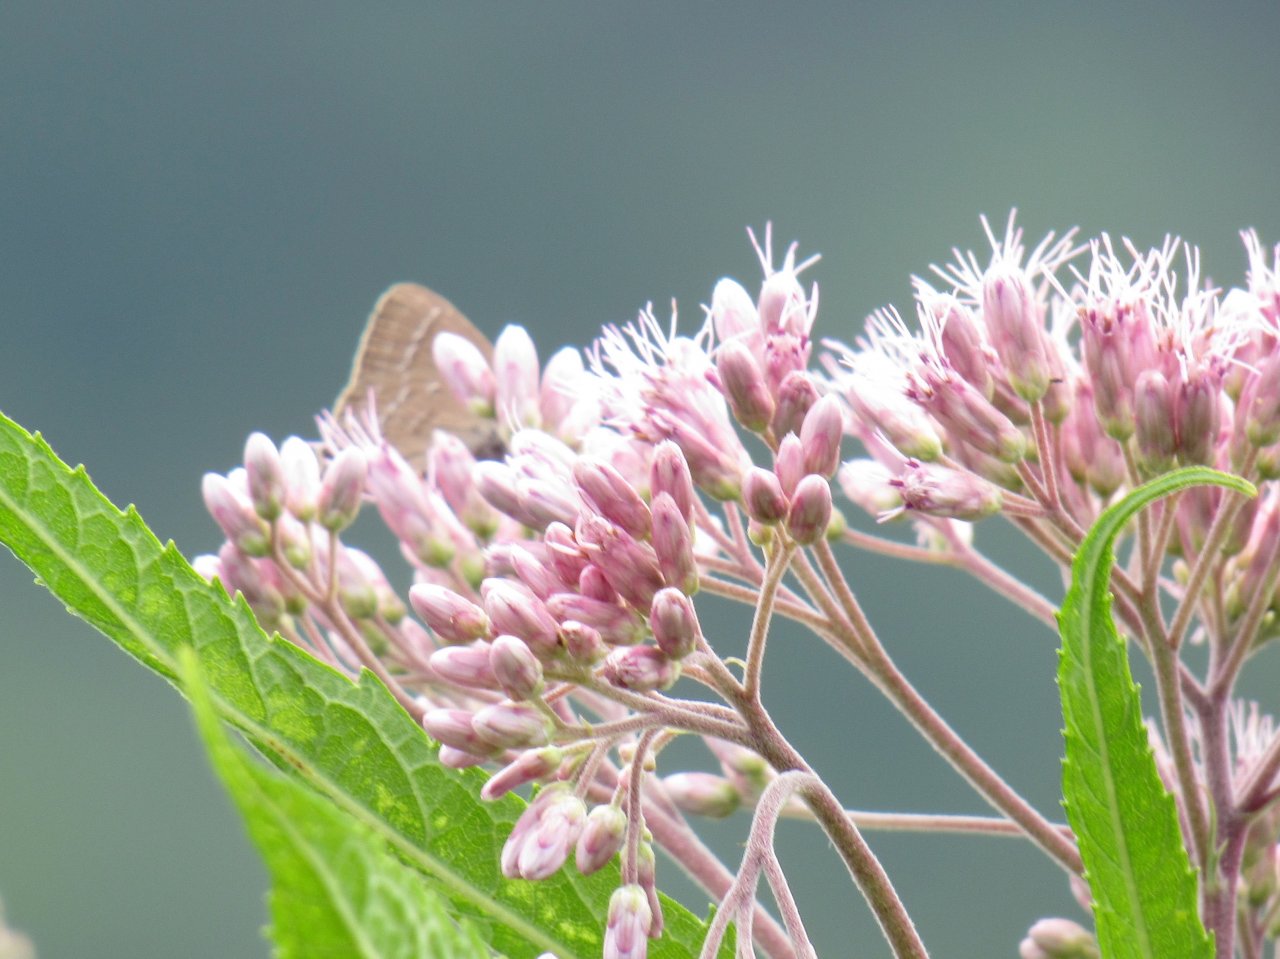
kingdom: Animalia
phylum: Arthropoda
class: Insecta
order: Lepidoptera
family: Lycaenidae
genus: Satyrium
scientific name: Satyrium calanus
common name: Banded Hairstreak
